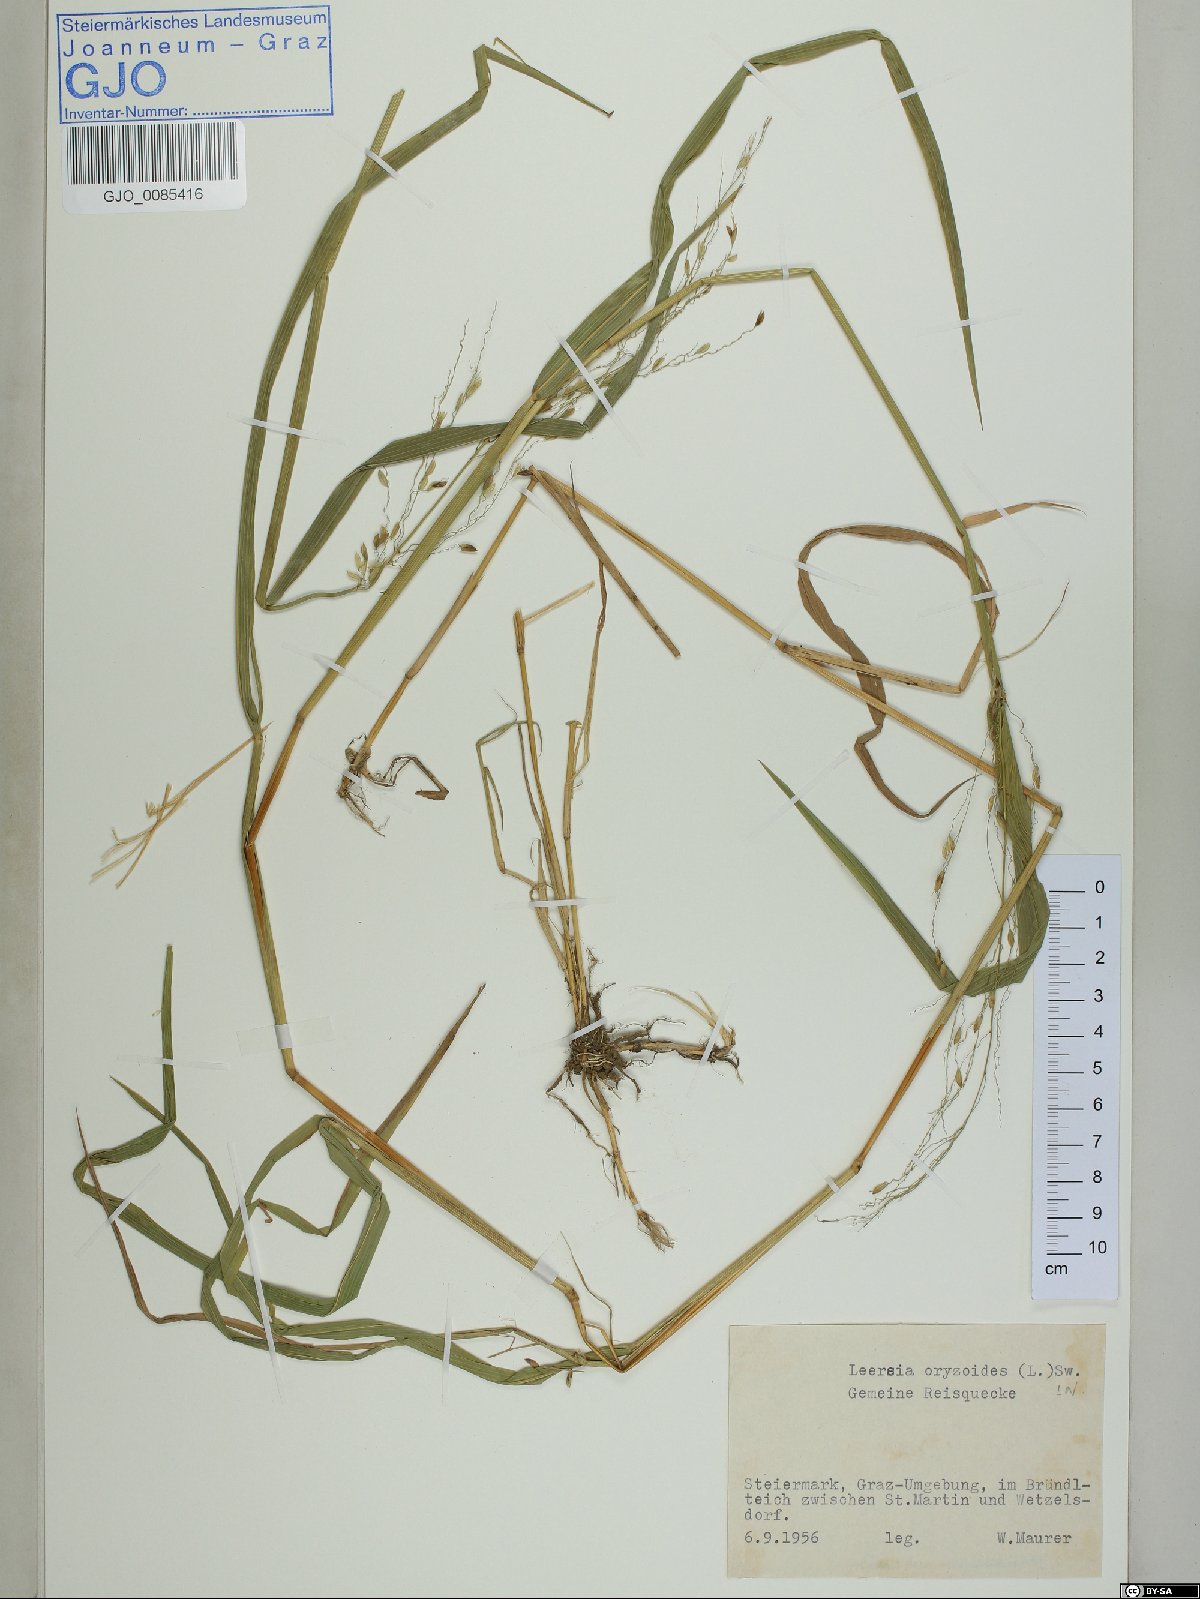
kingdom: Plantae
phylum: Tracheophyta
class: Liliopsida
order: Poales
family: Poaceae
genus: Leersia
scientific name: Leersia oryzoides
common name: Cut-grass
